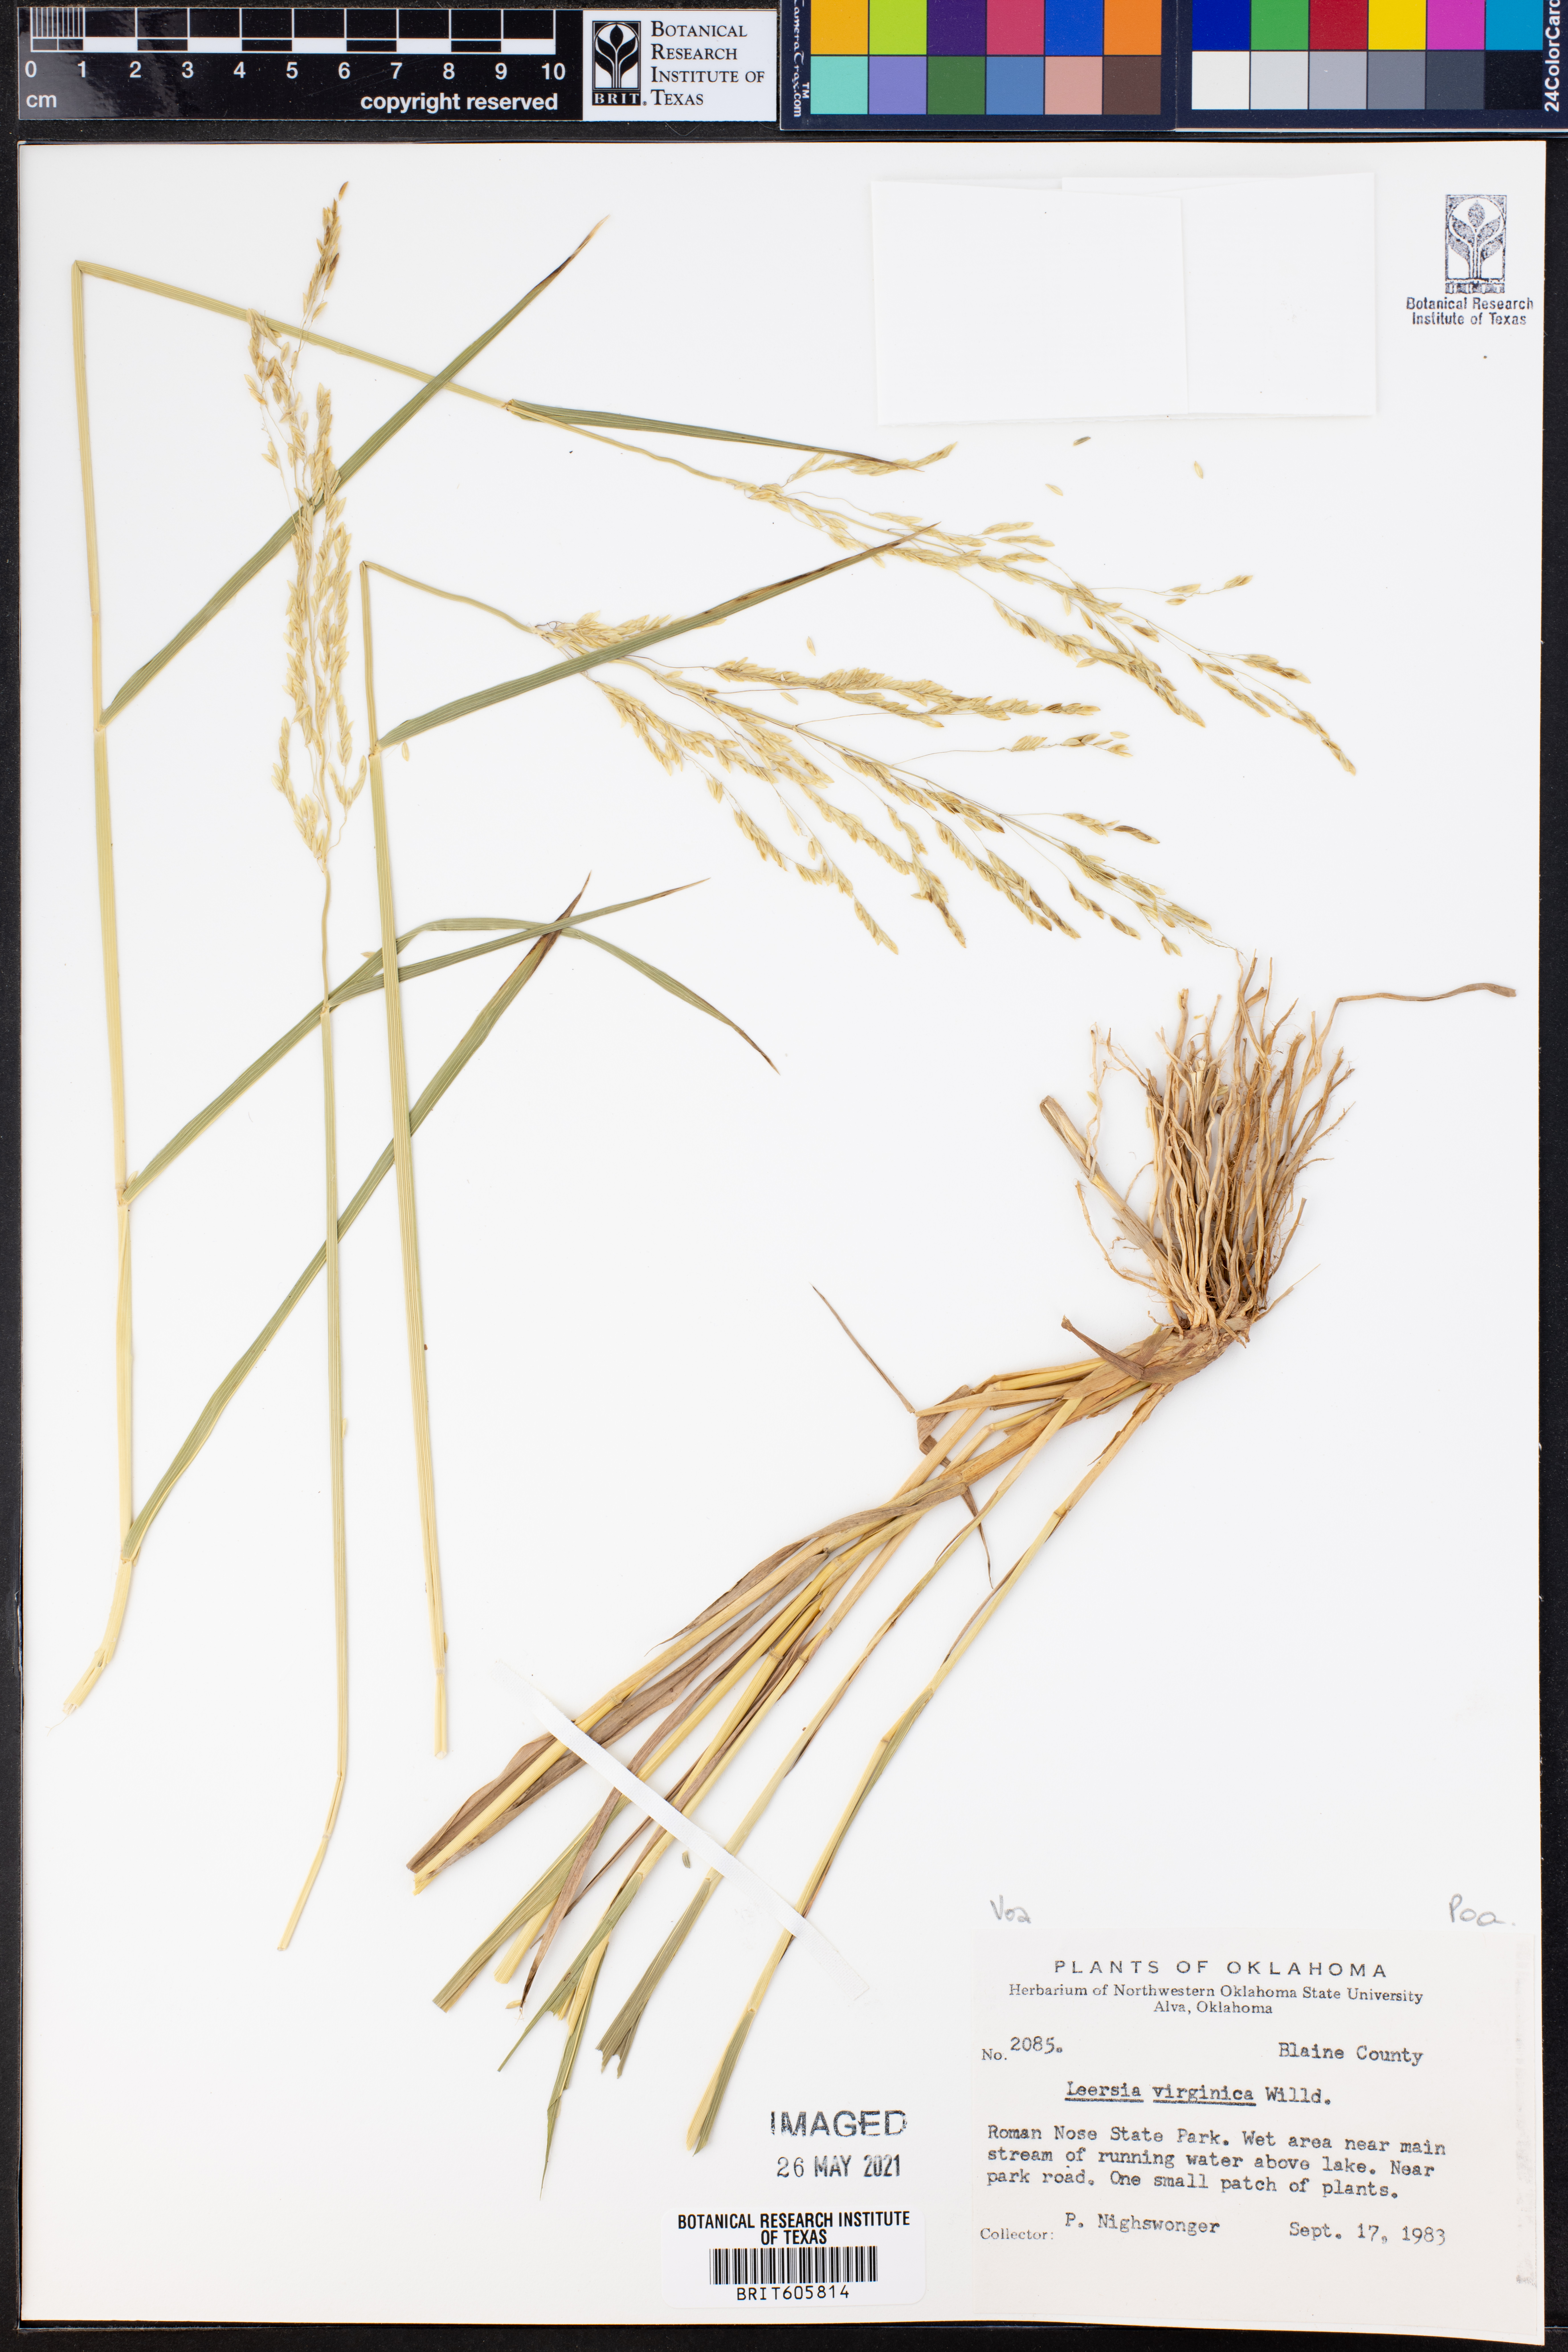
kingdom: Plantae
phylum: Tracheophyta
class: Liliopsida
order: Poales
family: Poaceae
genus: Leersia
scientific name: Leersia virginica
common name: White cutgrass
